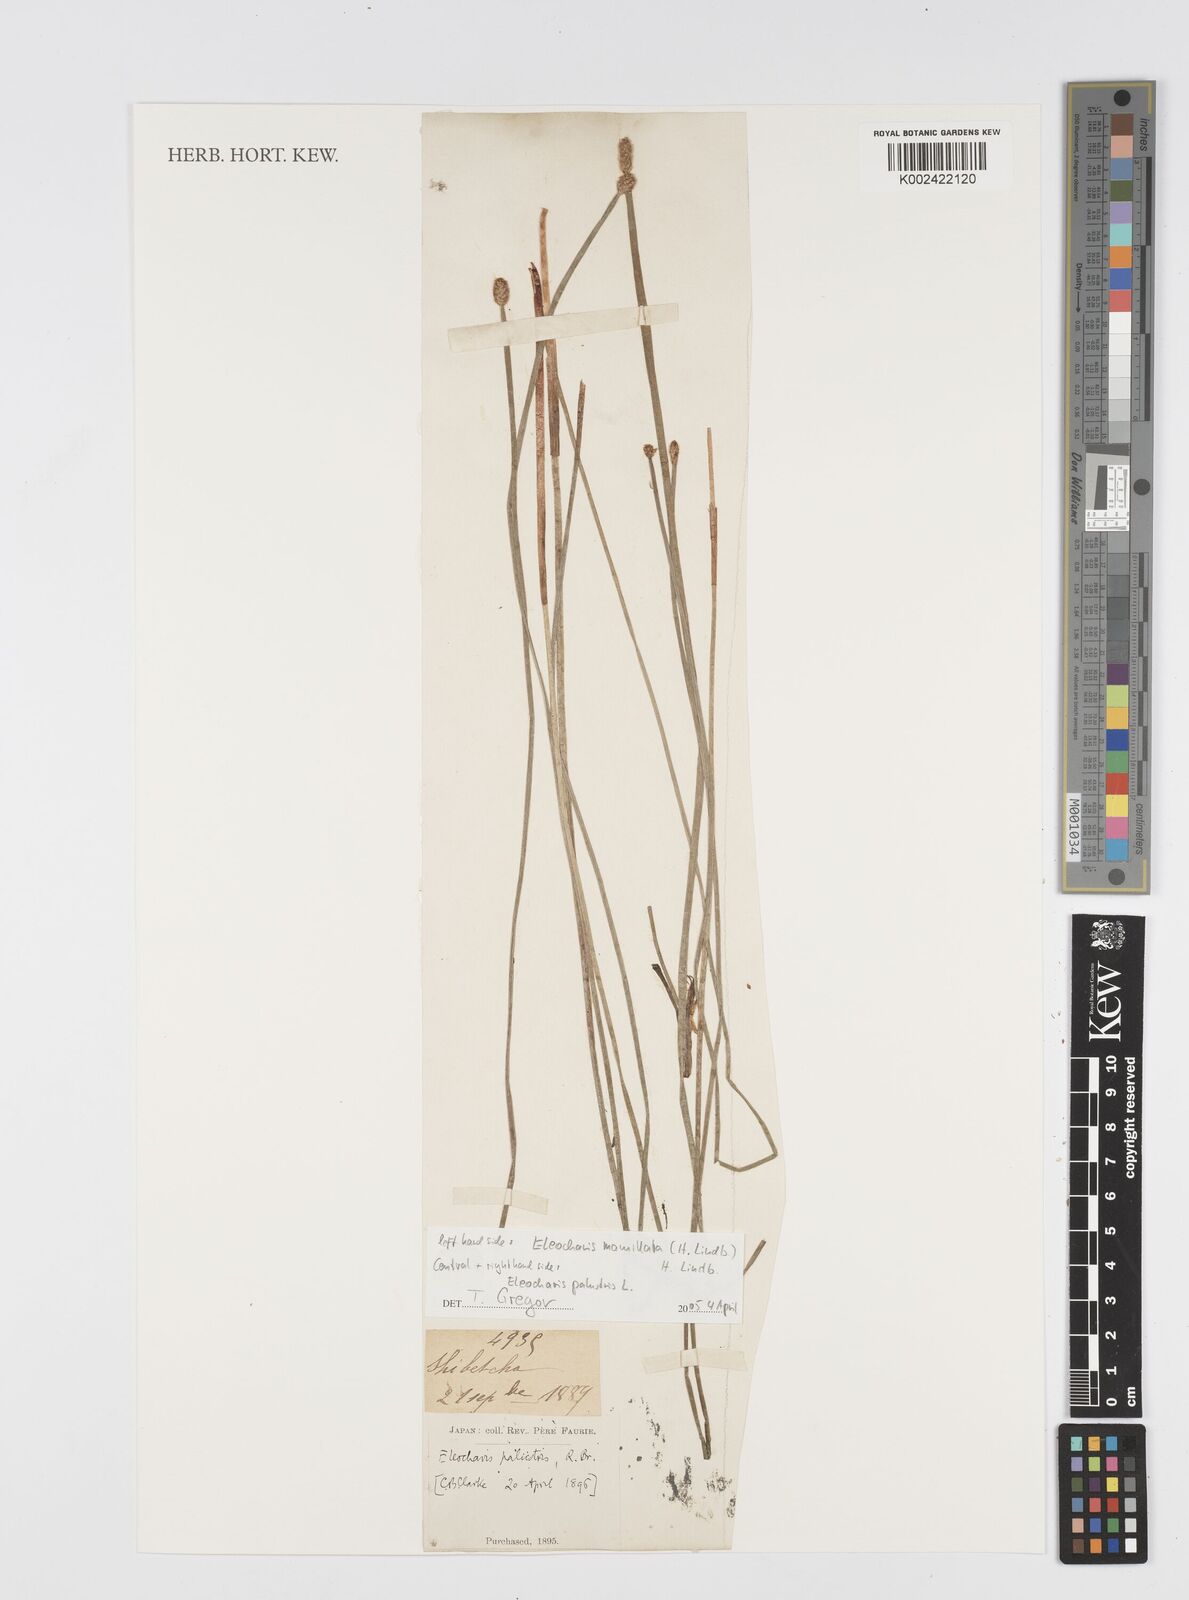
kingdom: Plantae
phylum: Tracheophyta
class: Liliopsida
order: Poales
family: Cyperaceae
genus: Eleocharis
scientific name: Eleocharis mamillata
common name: Northern spike-rush
